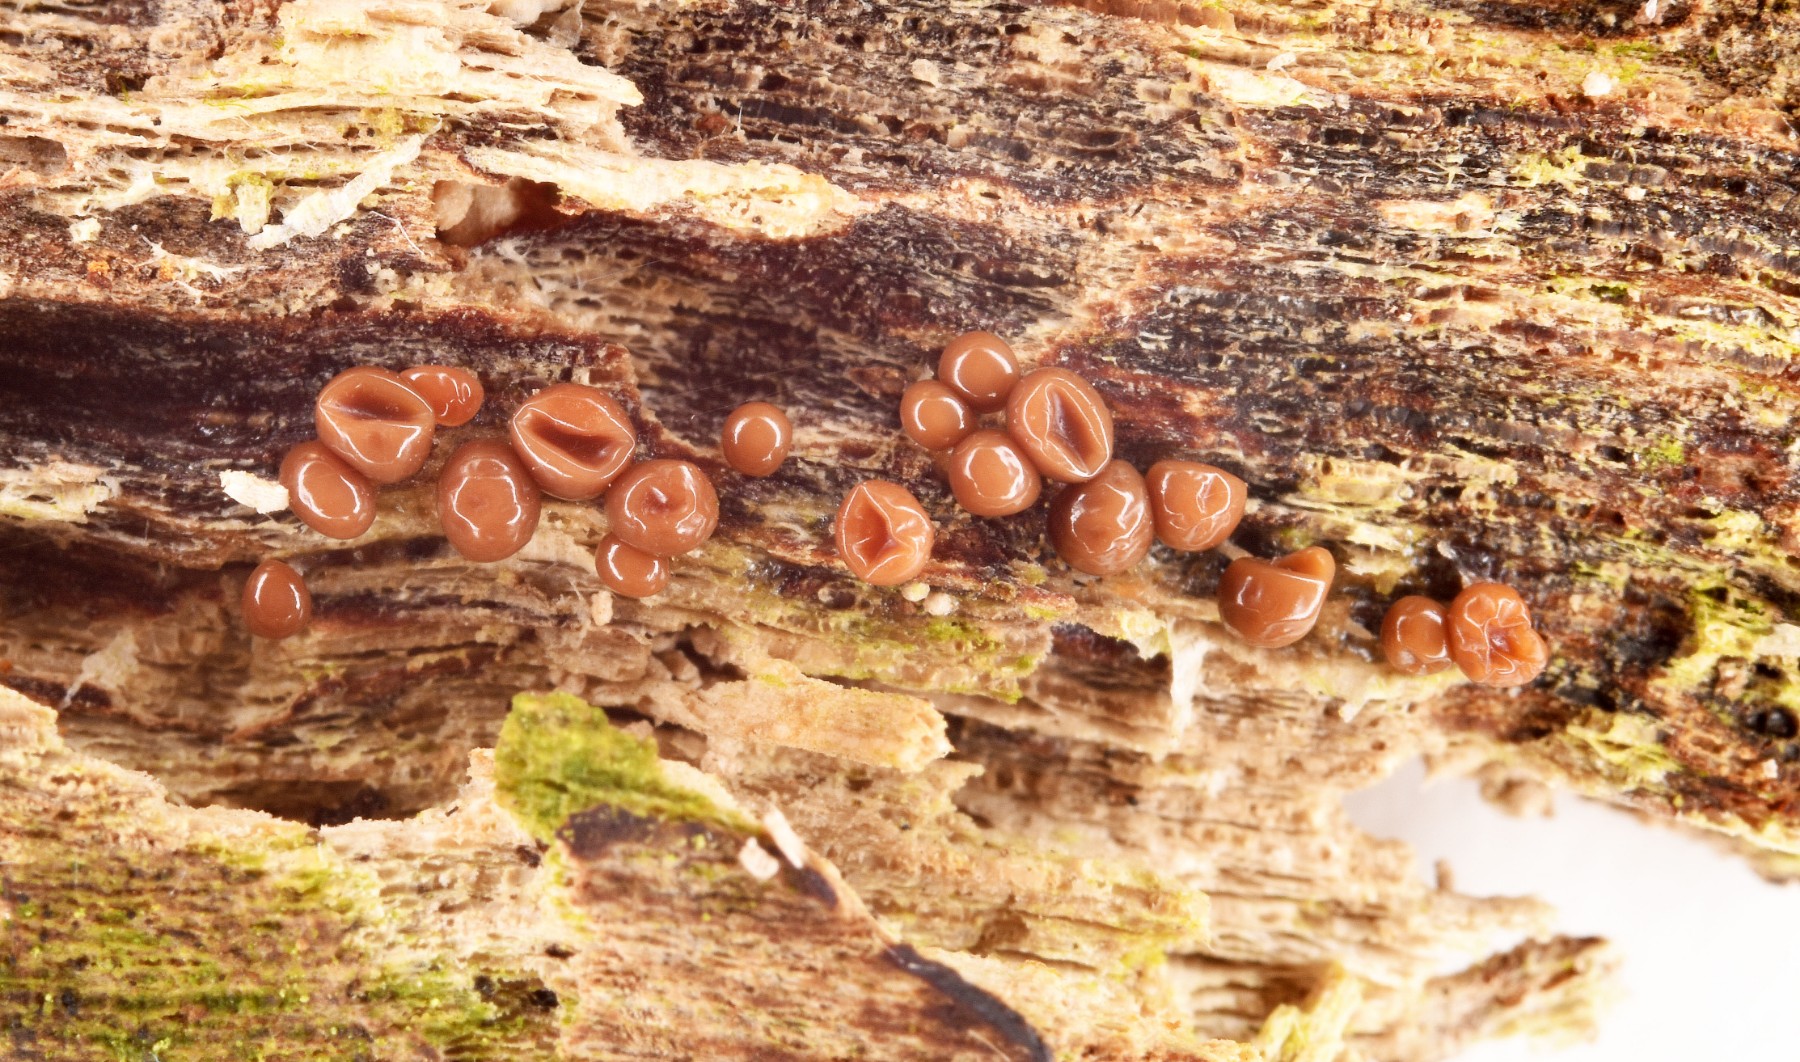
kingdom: Protozoa
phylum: Mycetozoa
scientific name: Mycetozoa
